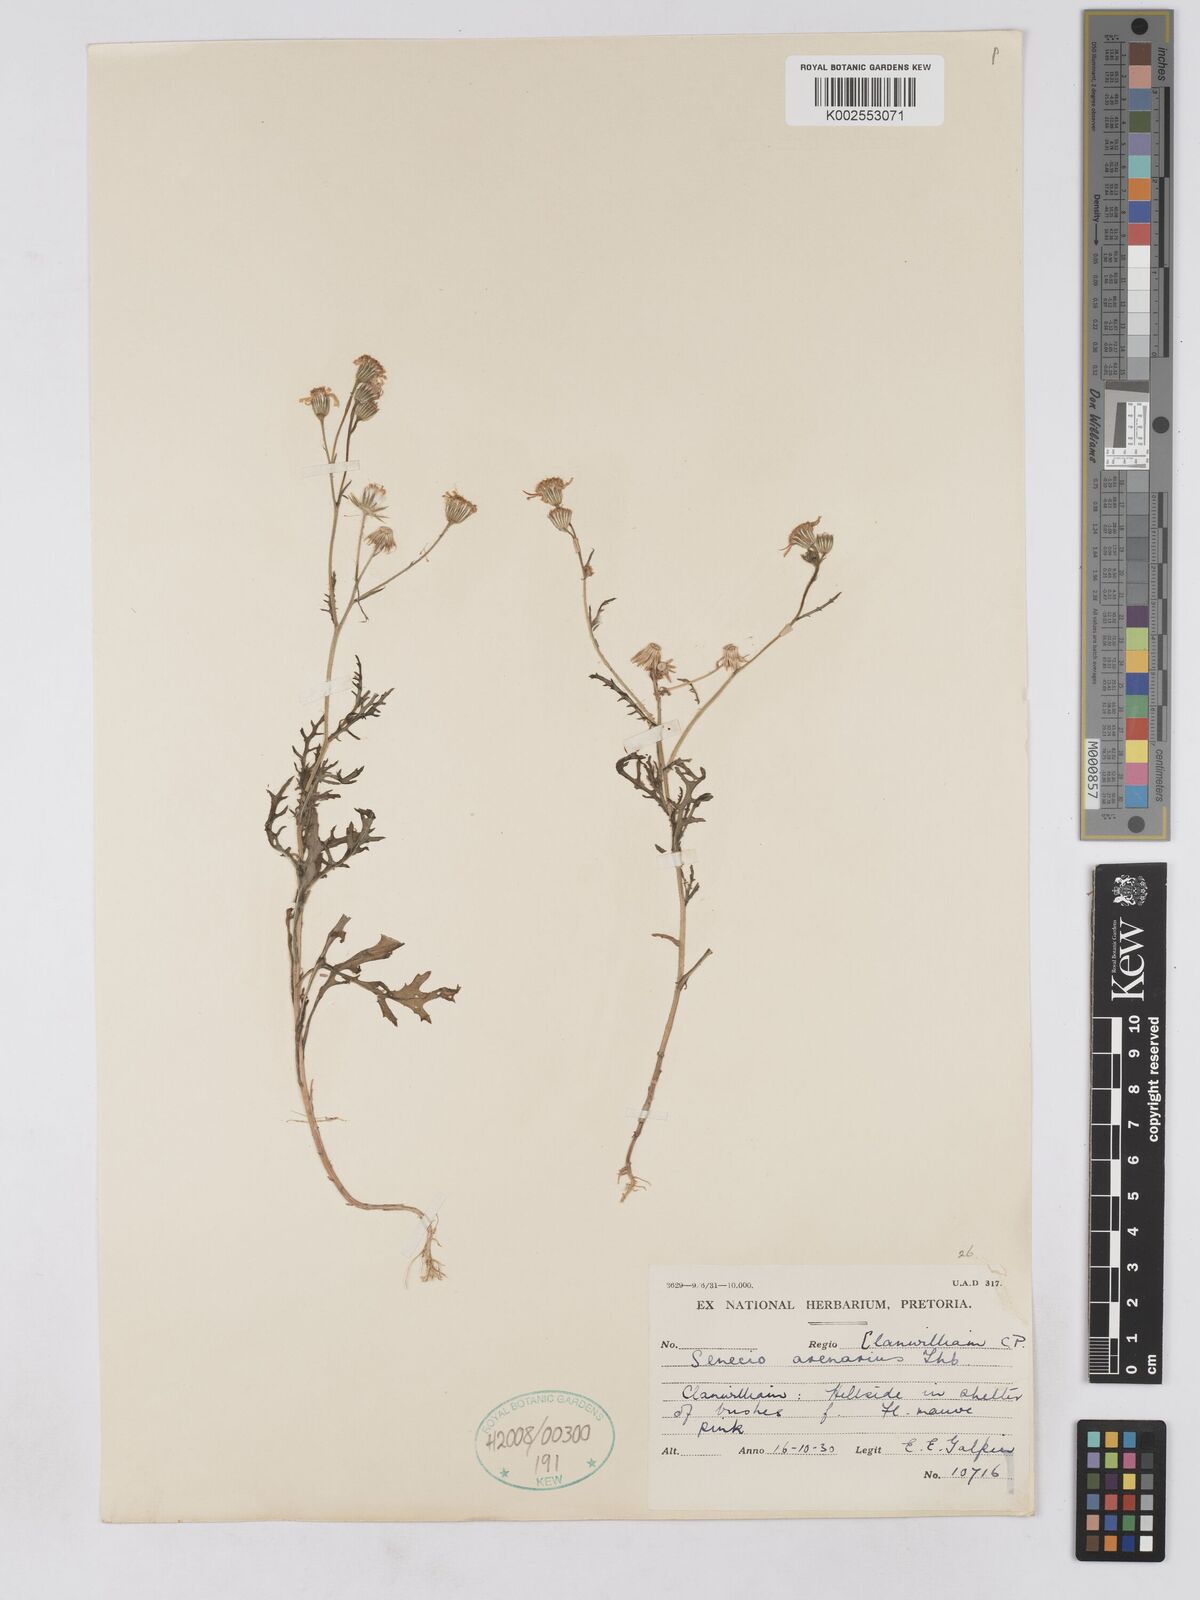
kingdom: Plantae
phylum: Tracheophyta
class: Magnoliopsida
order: Asterales
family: Asteraceae
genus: Senecio
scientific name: Senecio arenarius
